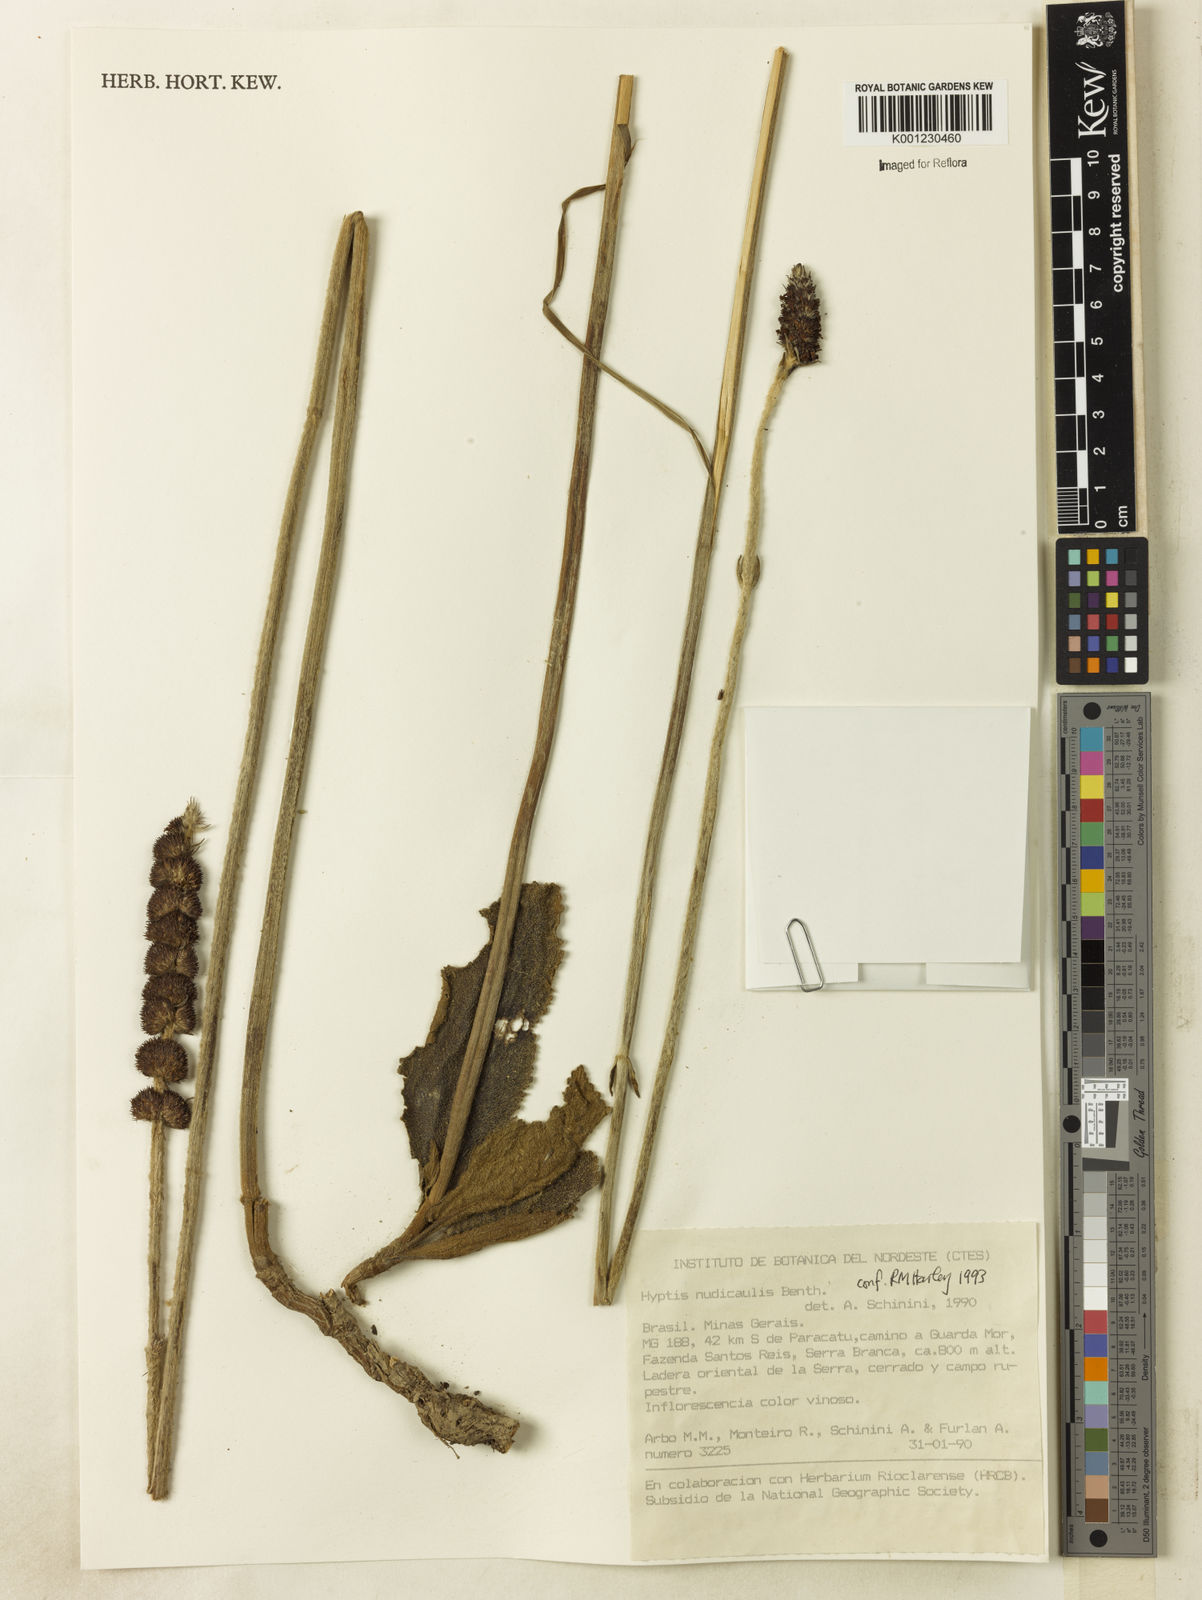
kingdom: Plantae
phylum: Tracheophyta
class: Magnoliopsida
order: Lamiales
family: Lamiaceae
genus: Hyptis
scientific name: Hyptis nudicaulis
